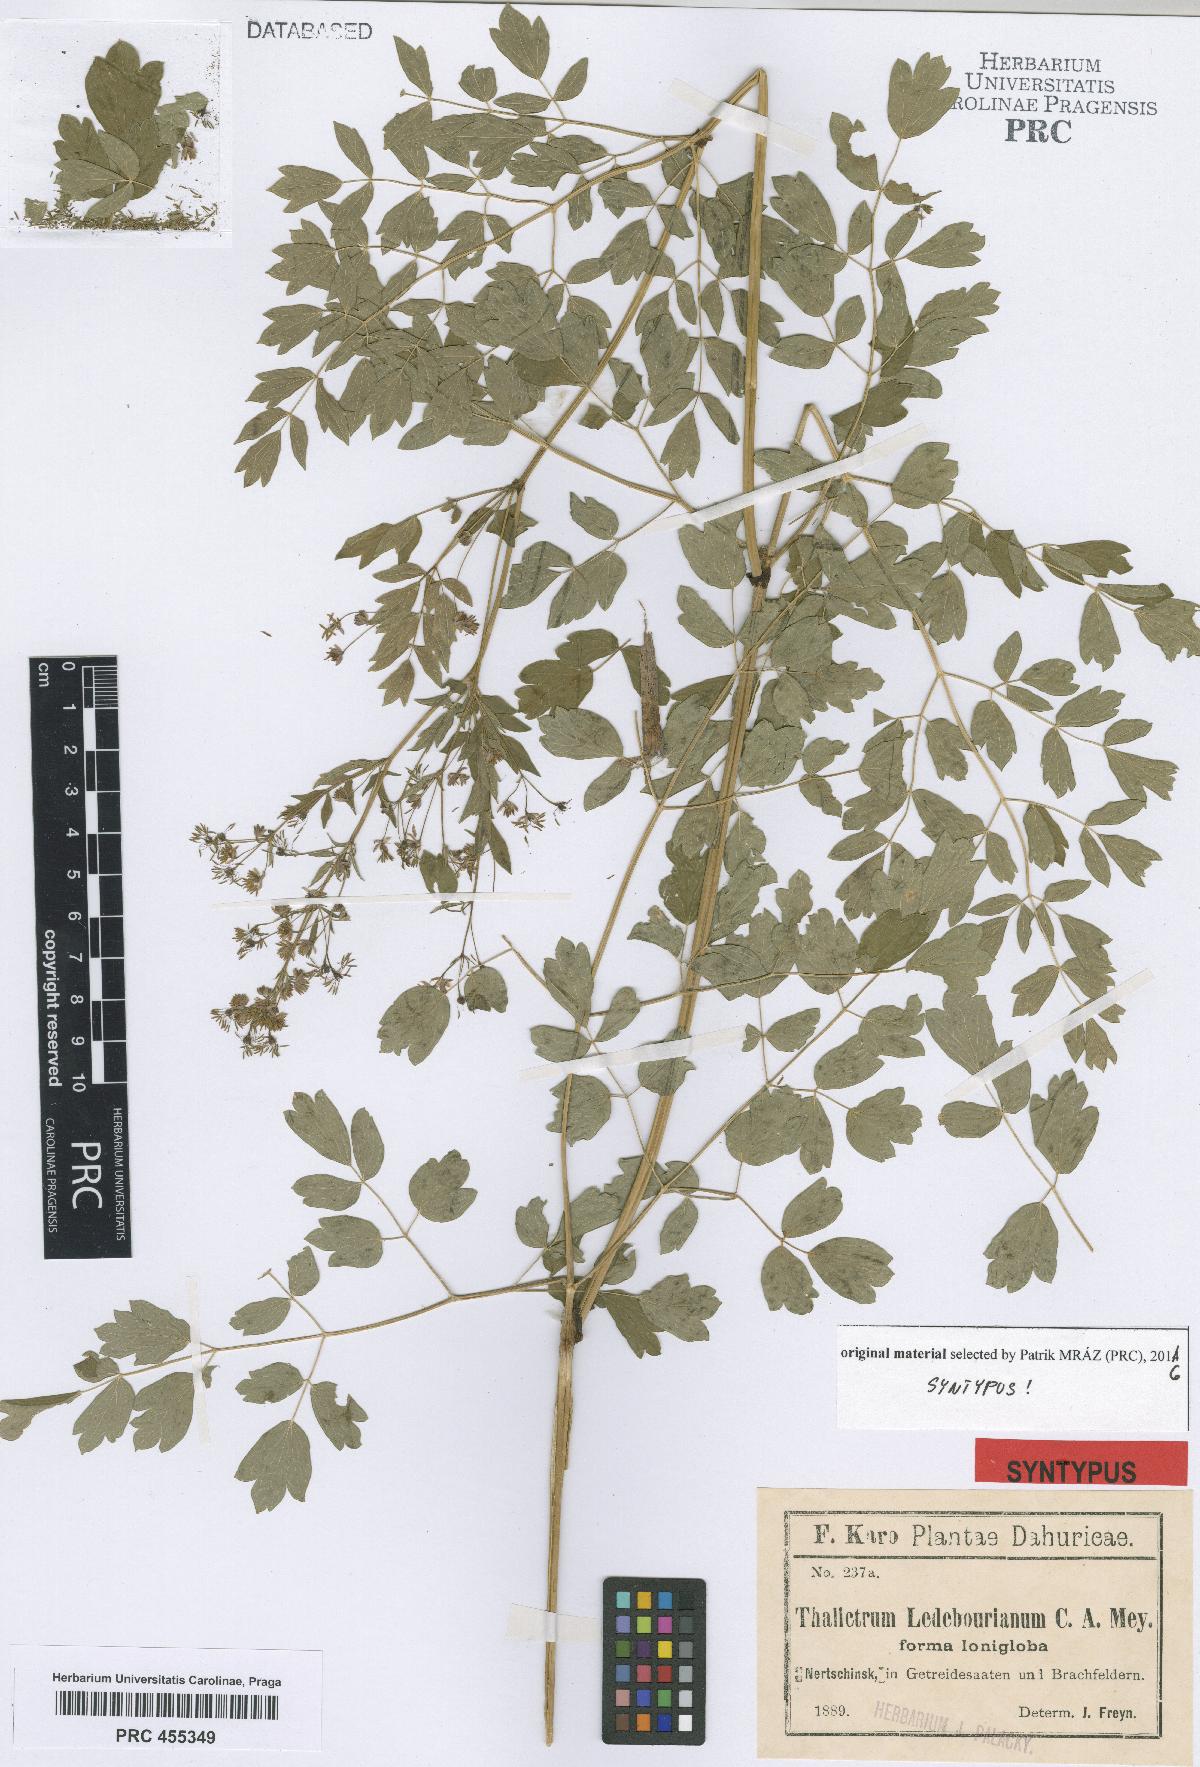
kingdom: Plantae
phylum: Tracheophyta
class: Magnoliopsida
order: Ranunculales
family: Ranunculaceae
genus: Thalictrum
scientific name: Thalictrum squarrosum
